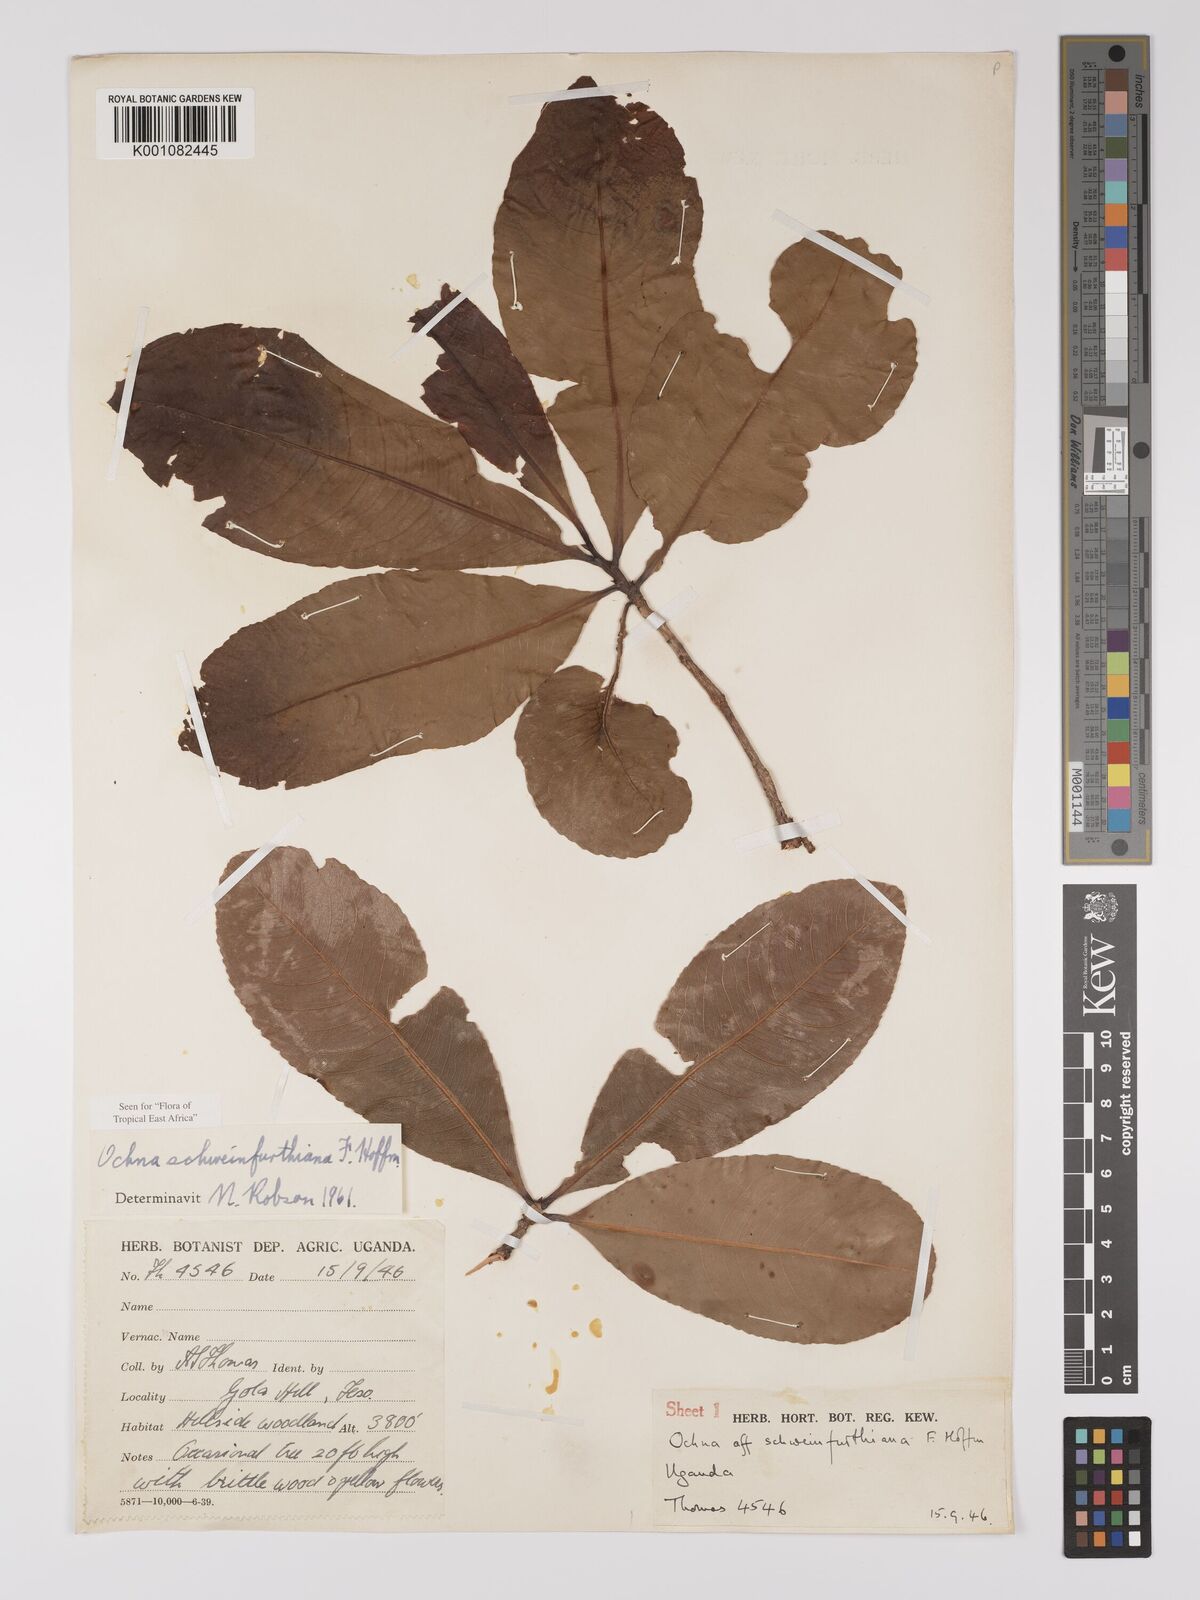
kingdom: Plantae
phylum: Tracheophyta
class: Magnoliopsida
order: Malpighiales
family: Ochnaceae
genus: Ochna
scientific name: Ochna schweinfurthiana
